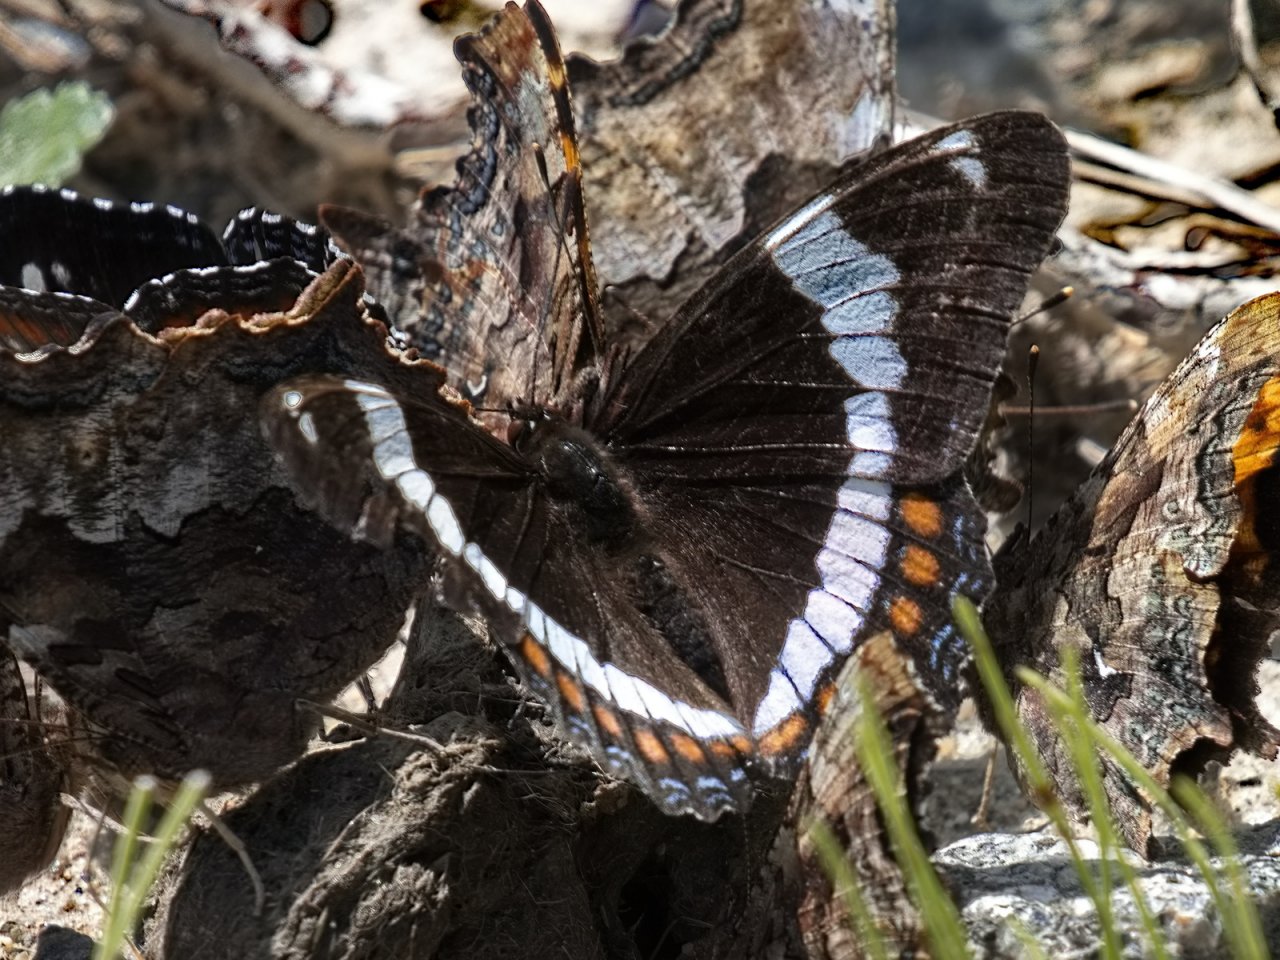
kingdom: Animalia
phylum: Arthropoda
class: Insecta
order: Lepidoptera
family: Nymphalidae
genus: Limenitis
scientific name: Limenitis arthemis
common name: Red-spotted Admiral
